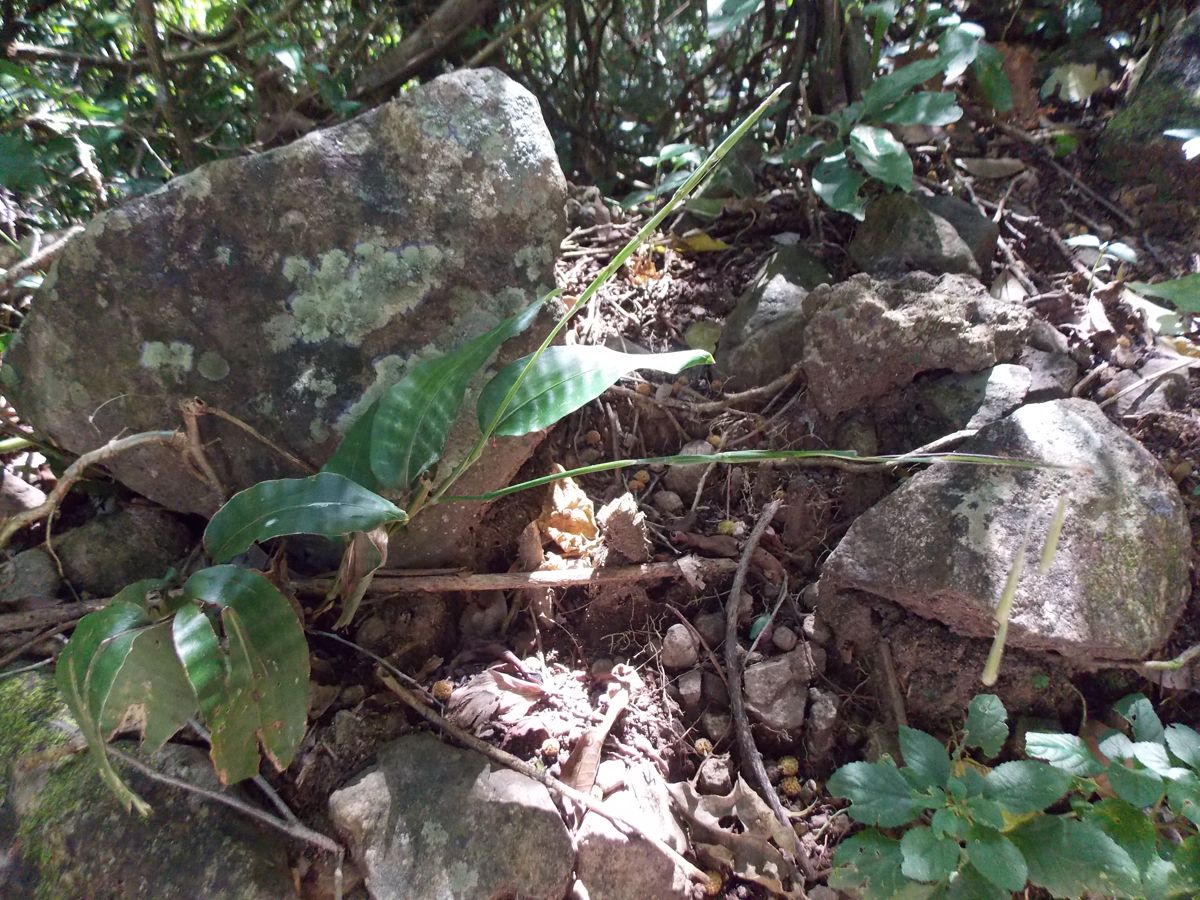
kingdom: Plantae
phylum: Tracheophyta
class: Liliopsida
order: Poales
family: Poaceae
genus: Streptochaeta
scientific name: Streptochaeta spicata
